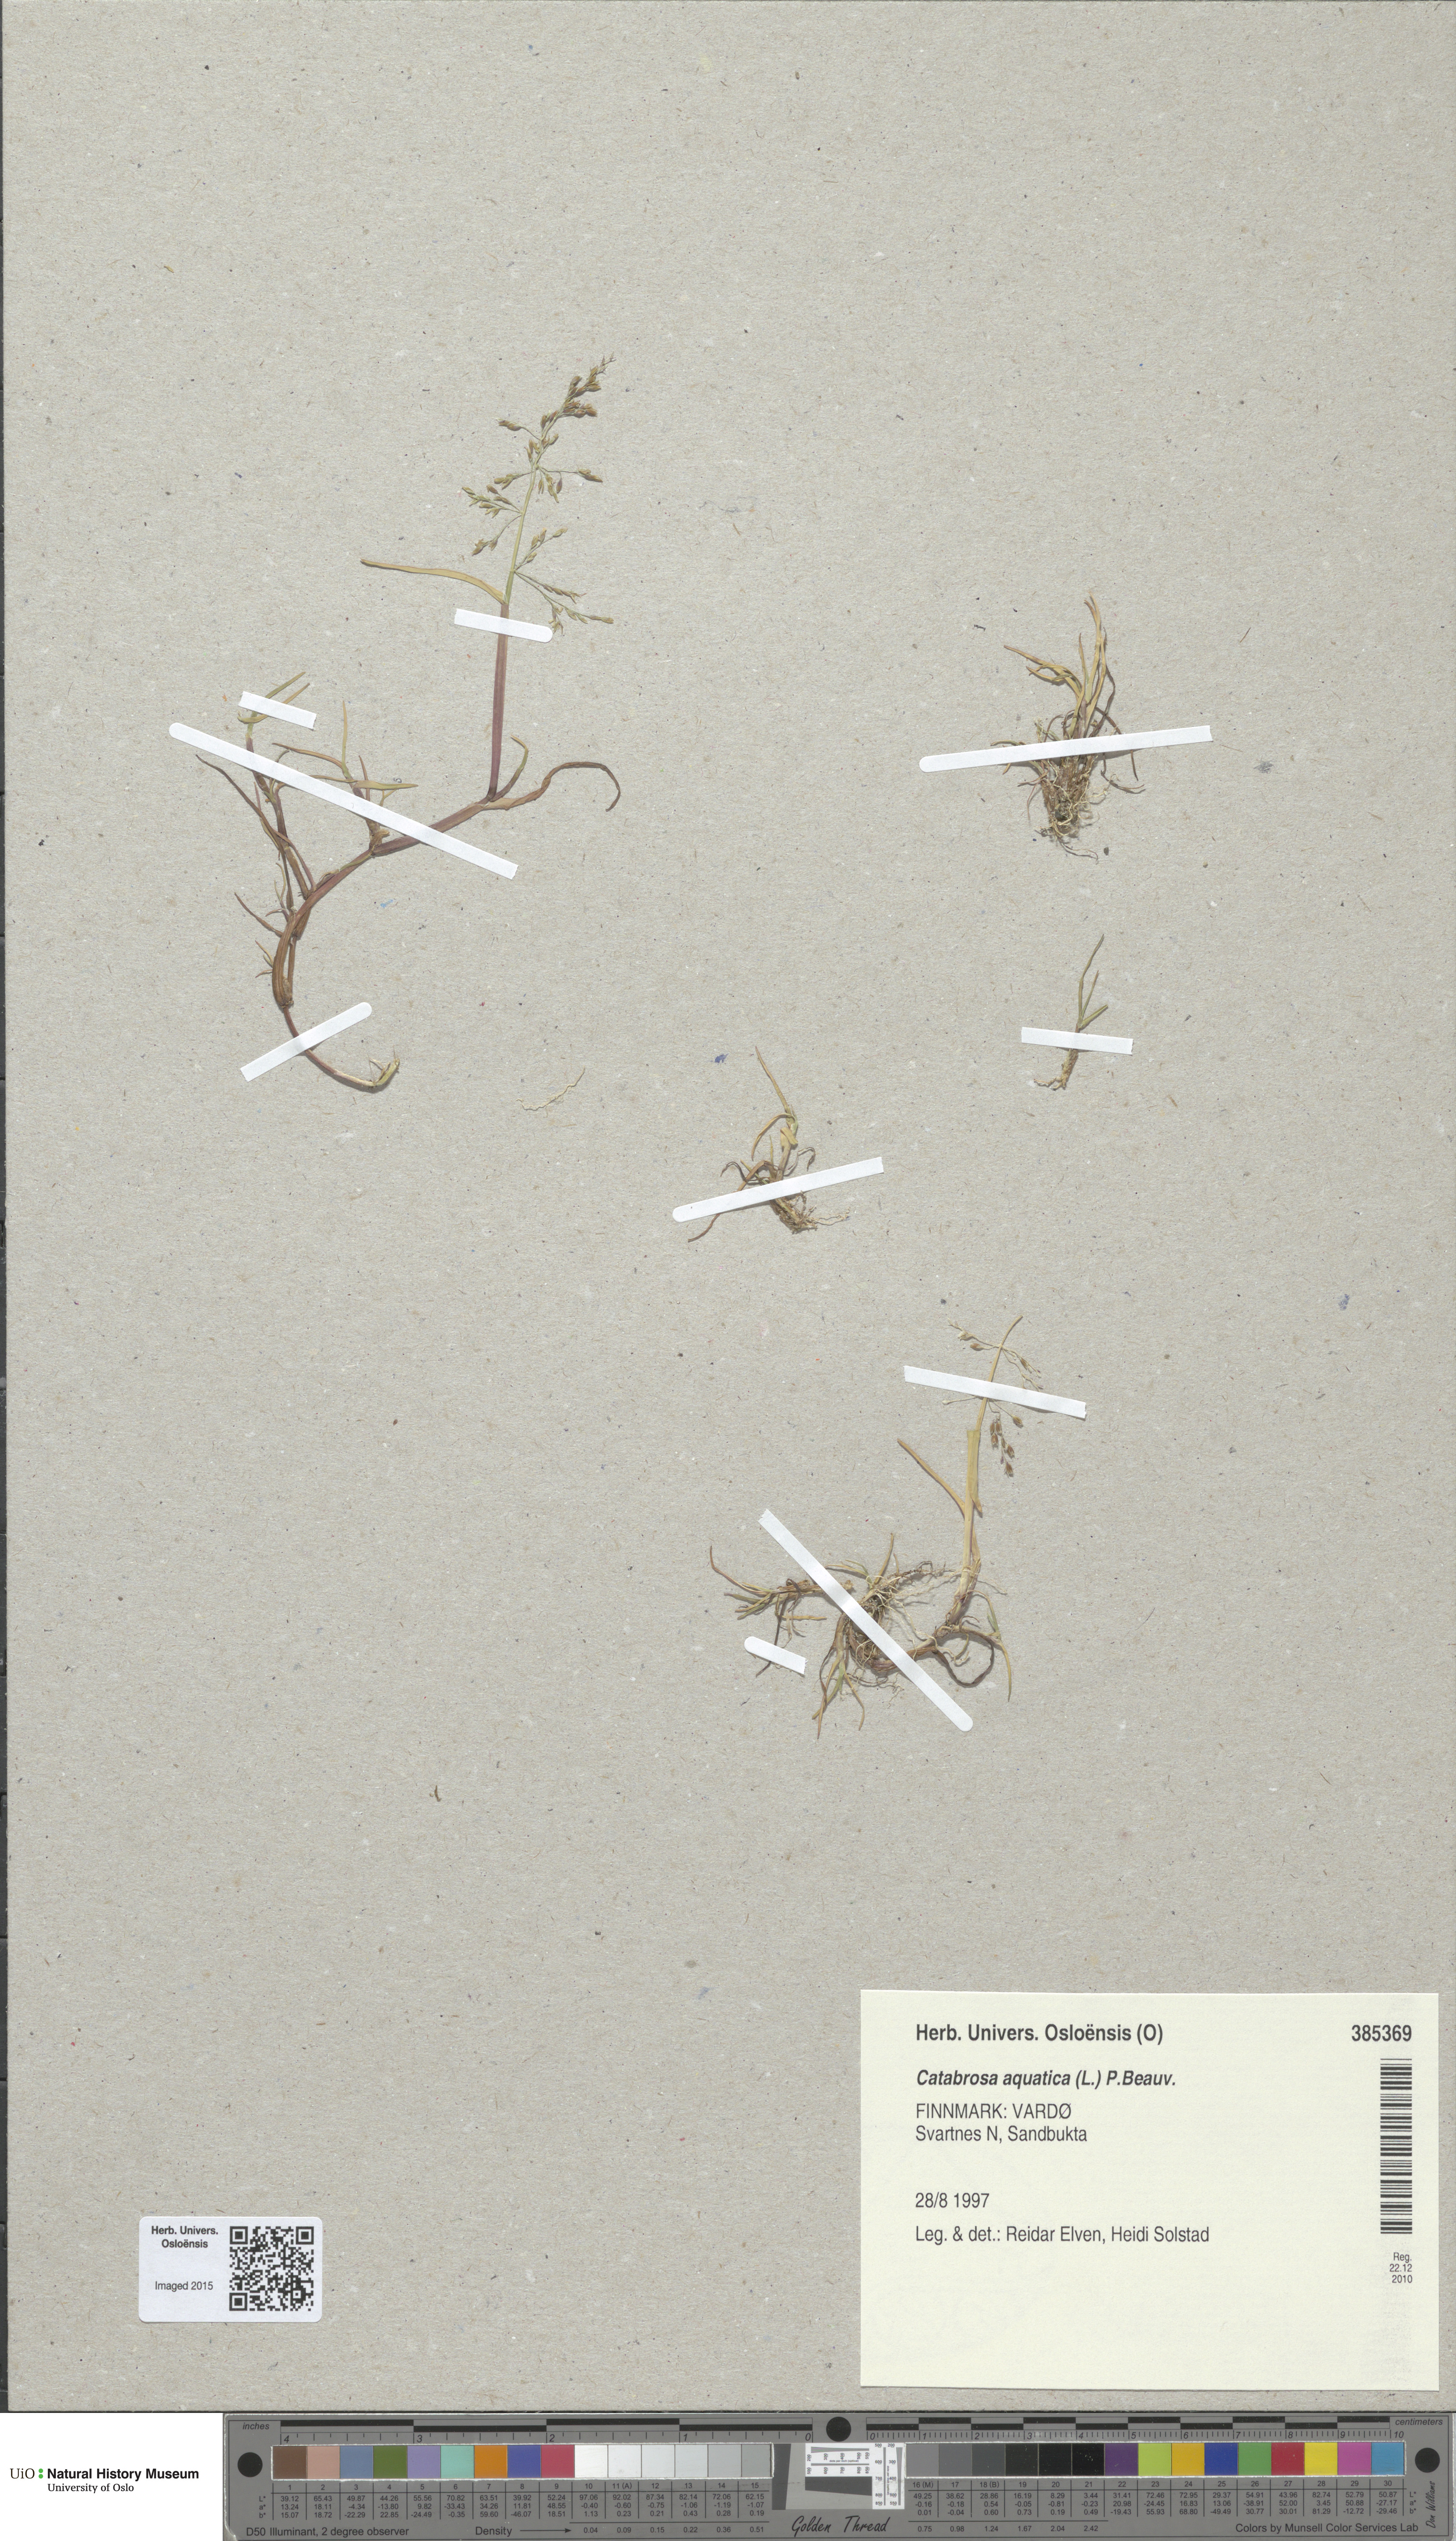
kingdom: Plantae
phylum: Tracheophyta
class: Liliopsida
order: Poales
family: Poaceae
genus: Catabrosa
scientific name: Catabrosa aquatica
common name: Whorl-grass
